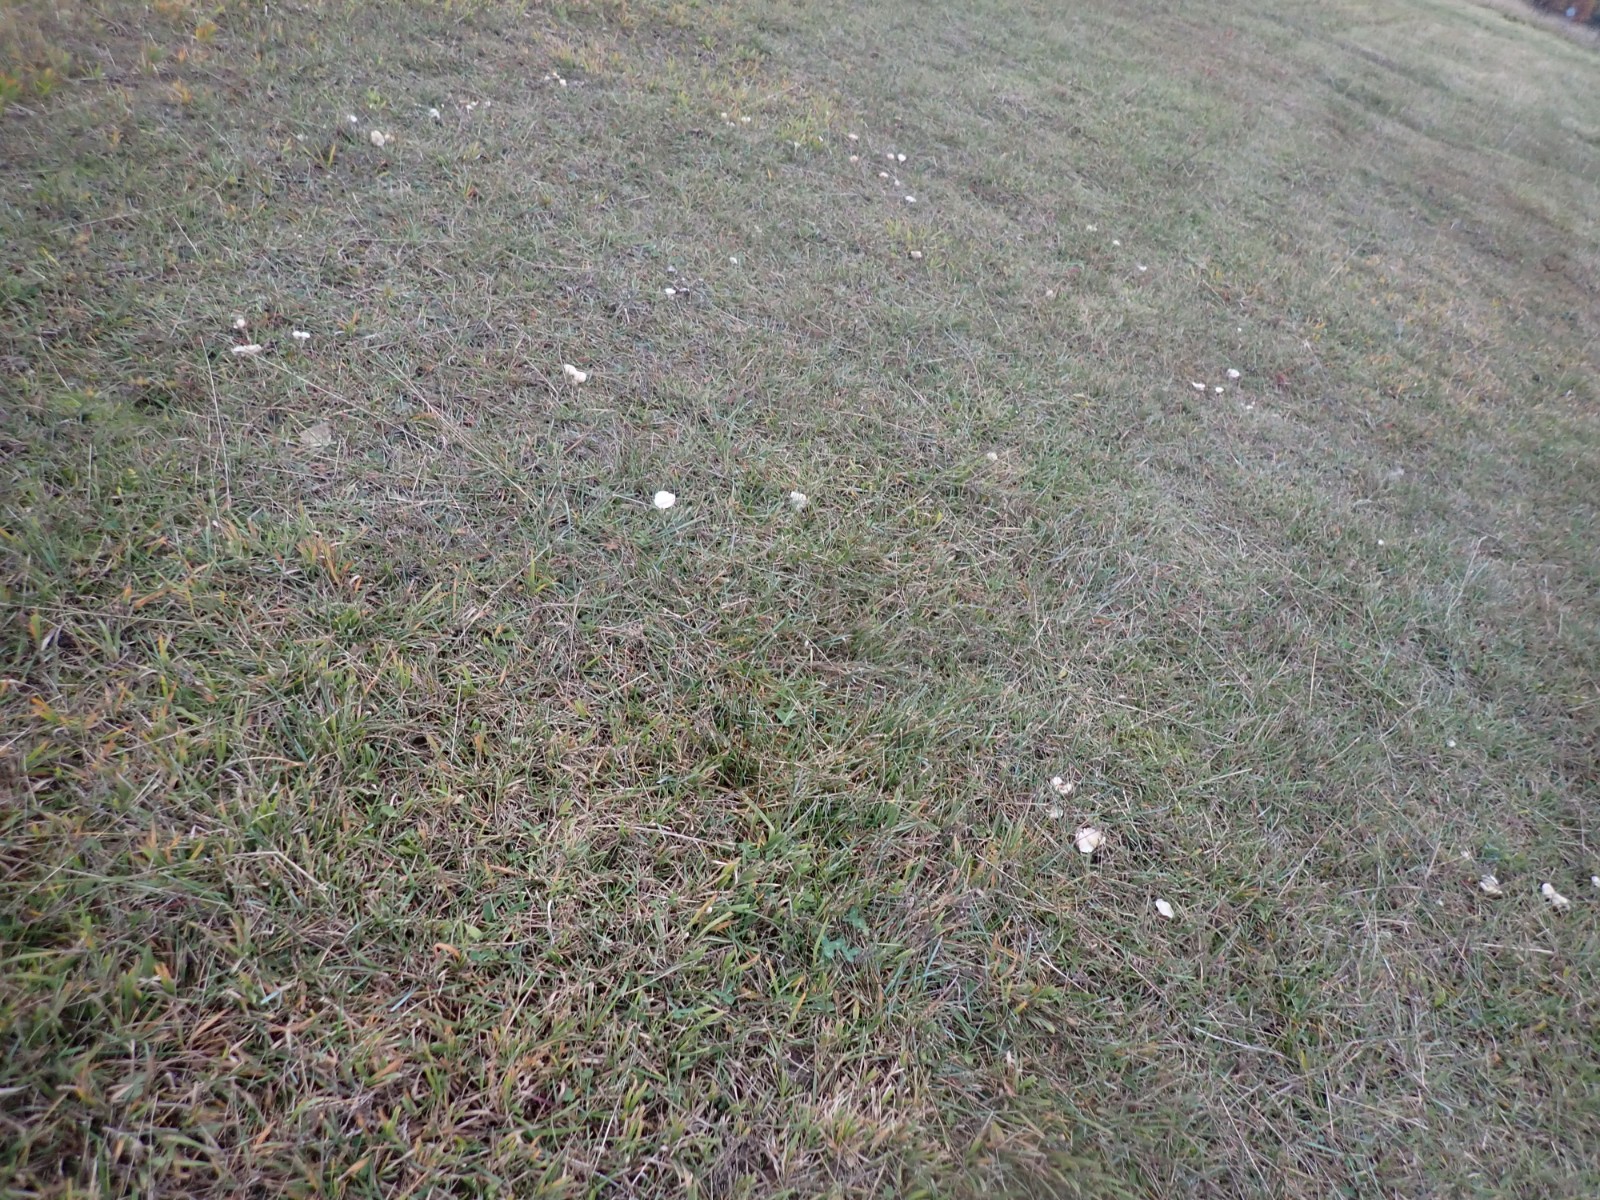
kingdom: Fungi
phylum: Basidiomycota
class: Agaricomycetes
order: Agaricales
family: Hygrophoraceae
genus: Cuphophyllus
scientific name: Cuphophyllus virgineus
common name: snehvid vokshat
